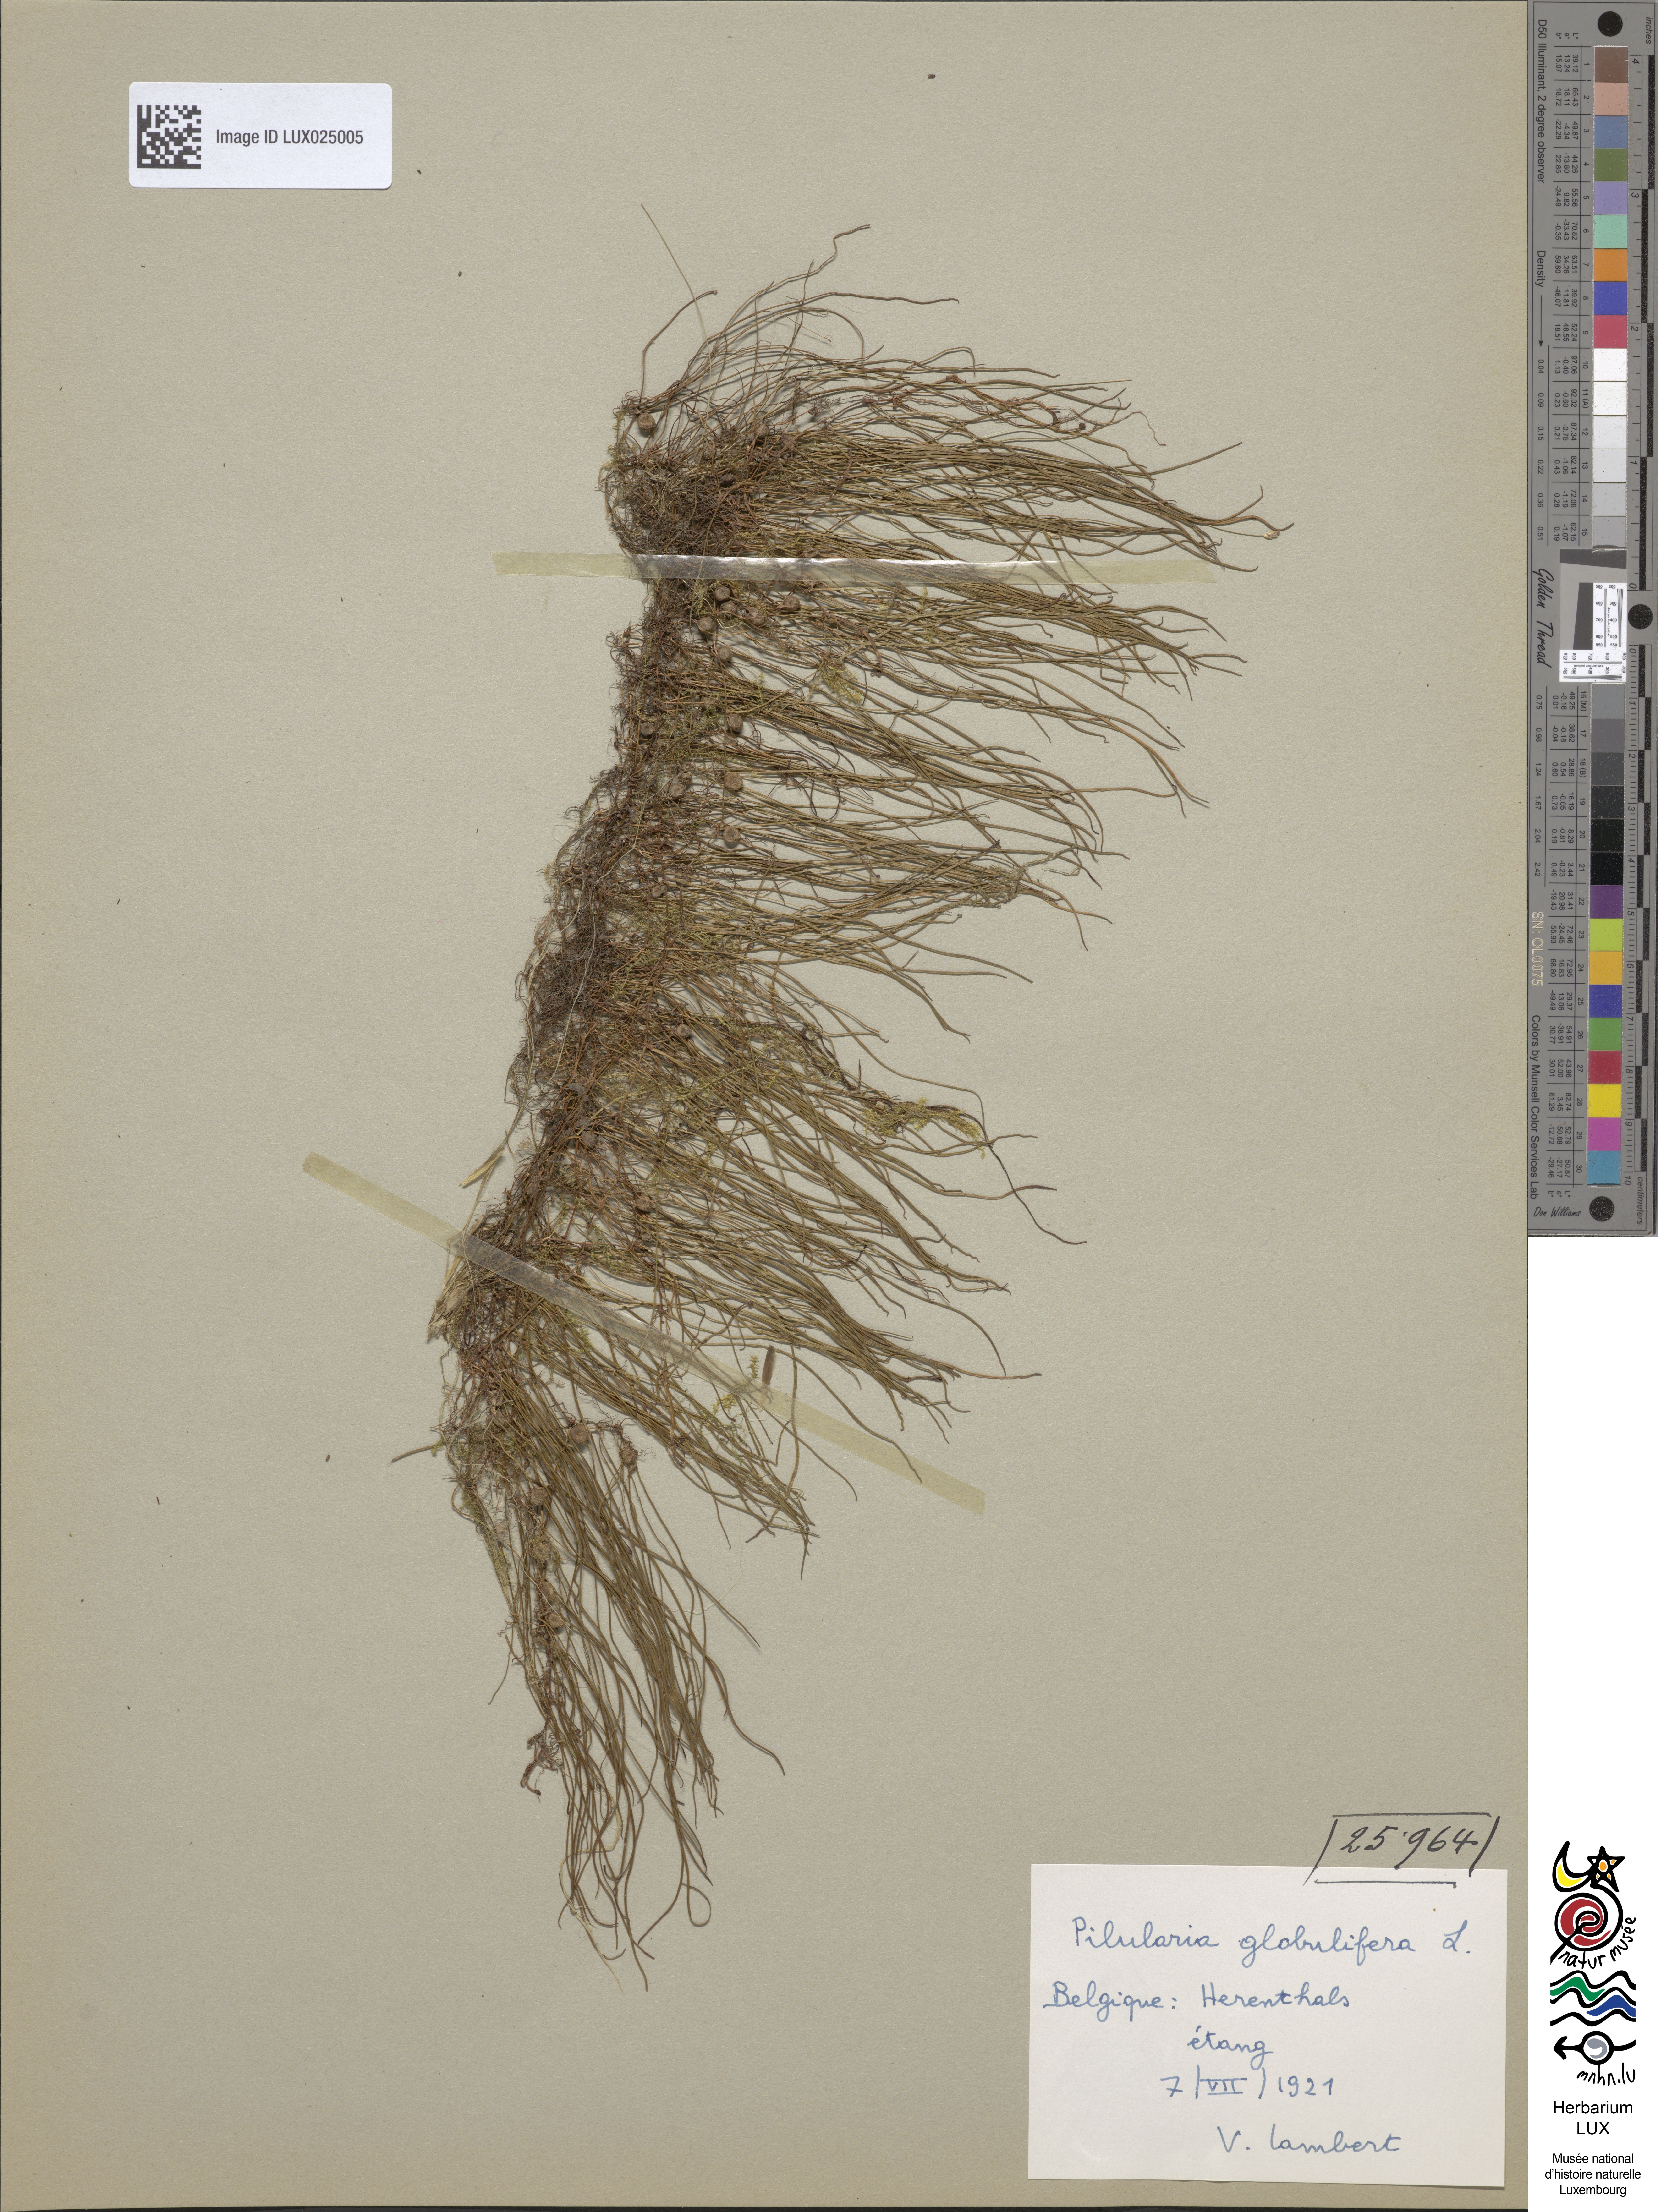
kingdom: Plantae
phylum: Tracheophyta
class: Polypodiopsida
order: Salviniales
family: Marsileaceae
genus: Pilularia
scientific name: Pilularia globulifera
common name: Pillwort
